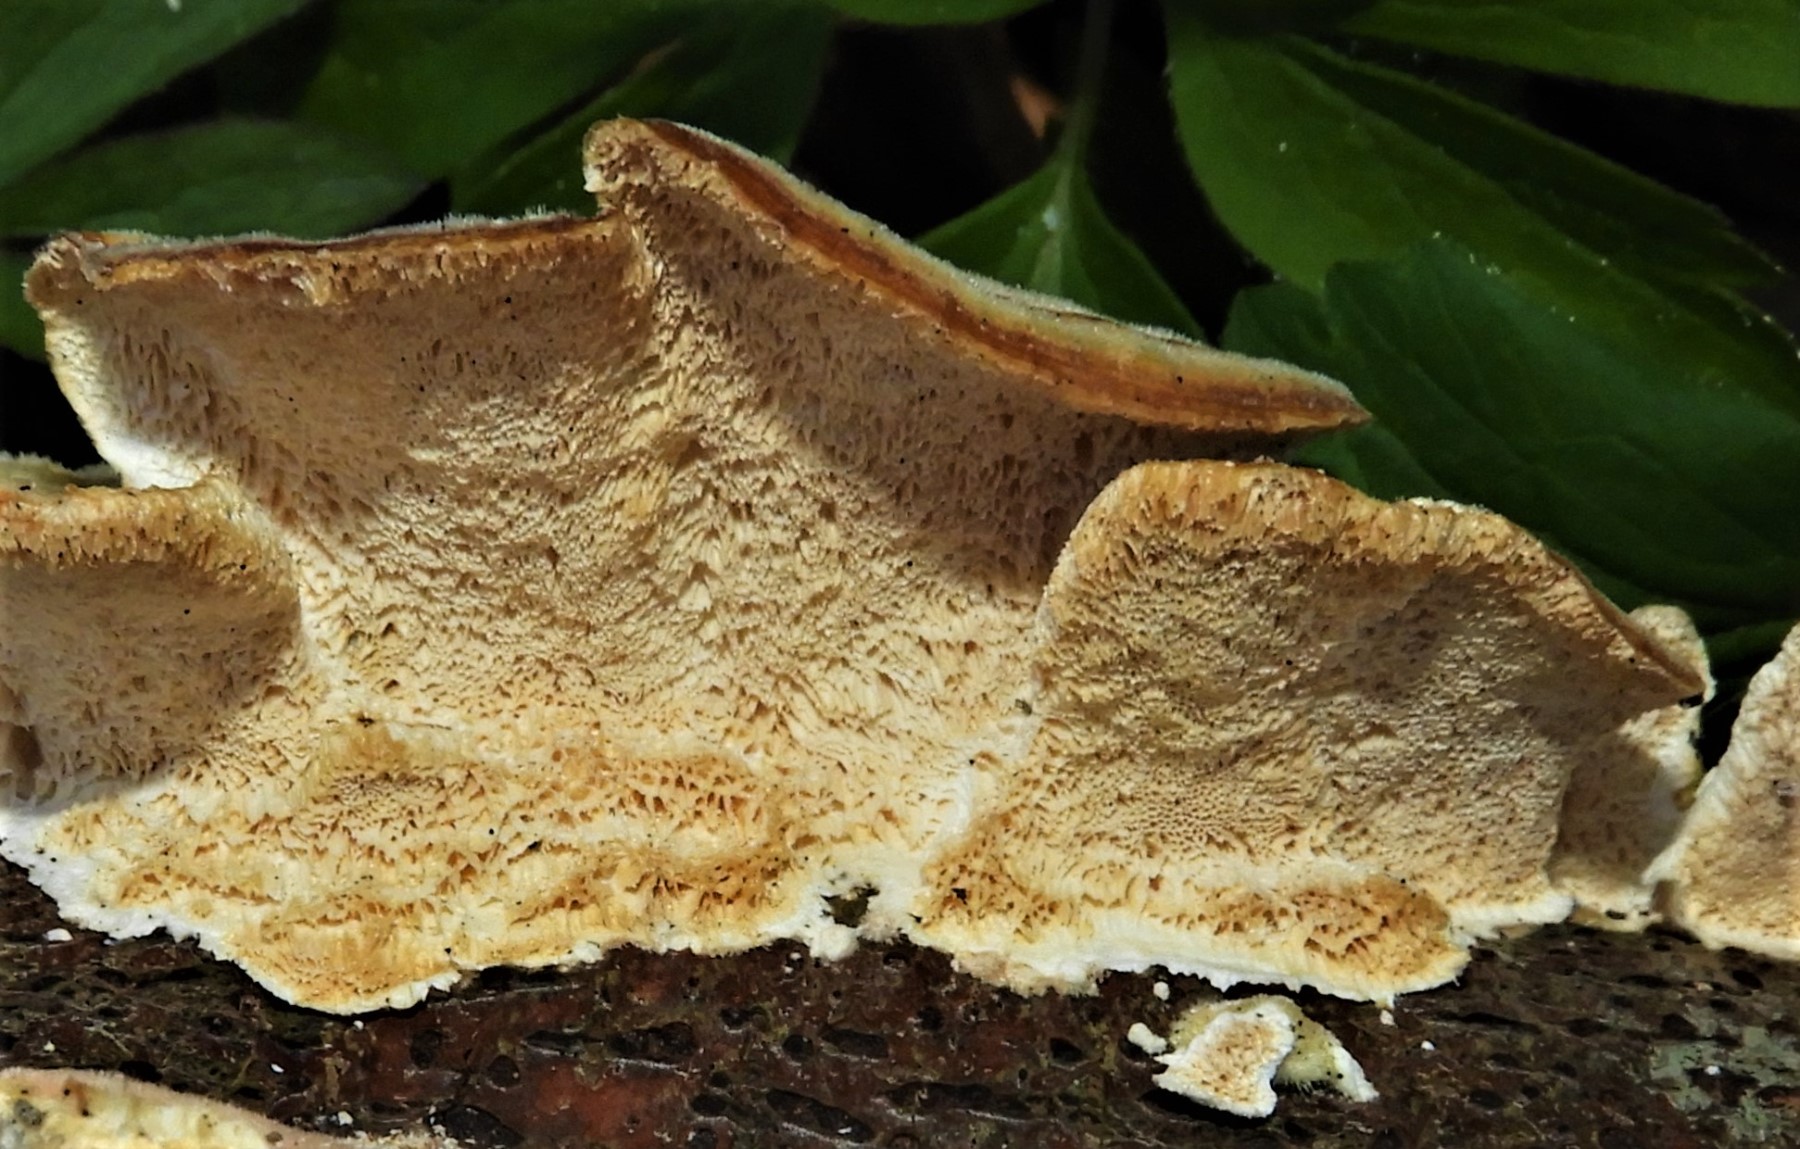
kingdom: Fungi
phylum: Basidiomycota
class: Agaricomycetes
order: Polyporales
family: Polyporaceae
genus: Trametes
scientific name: Trametes versicolor
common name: broget læderporesvamp
